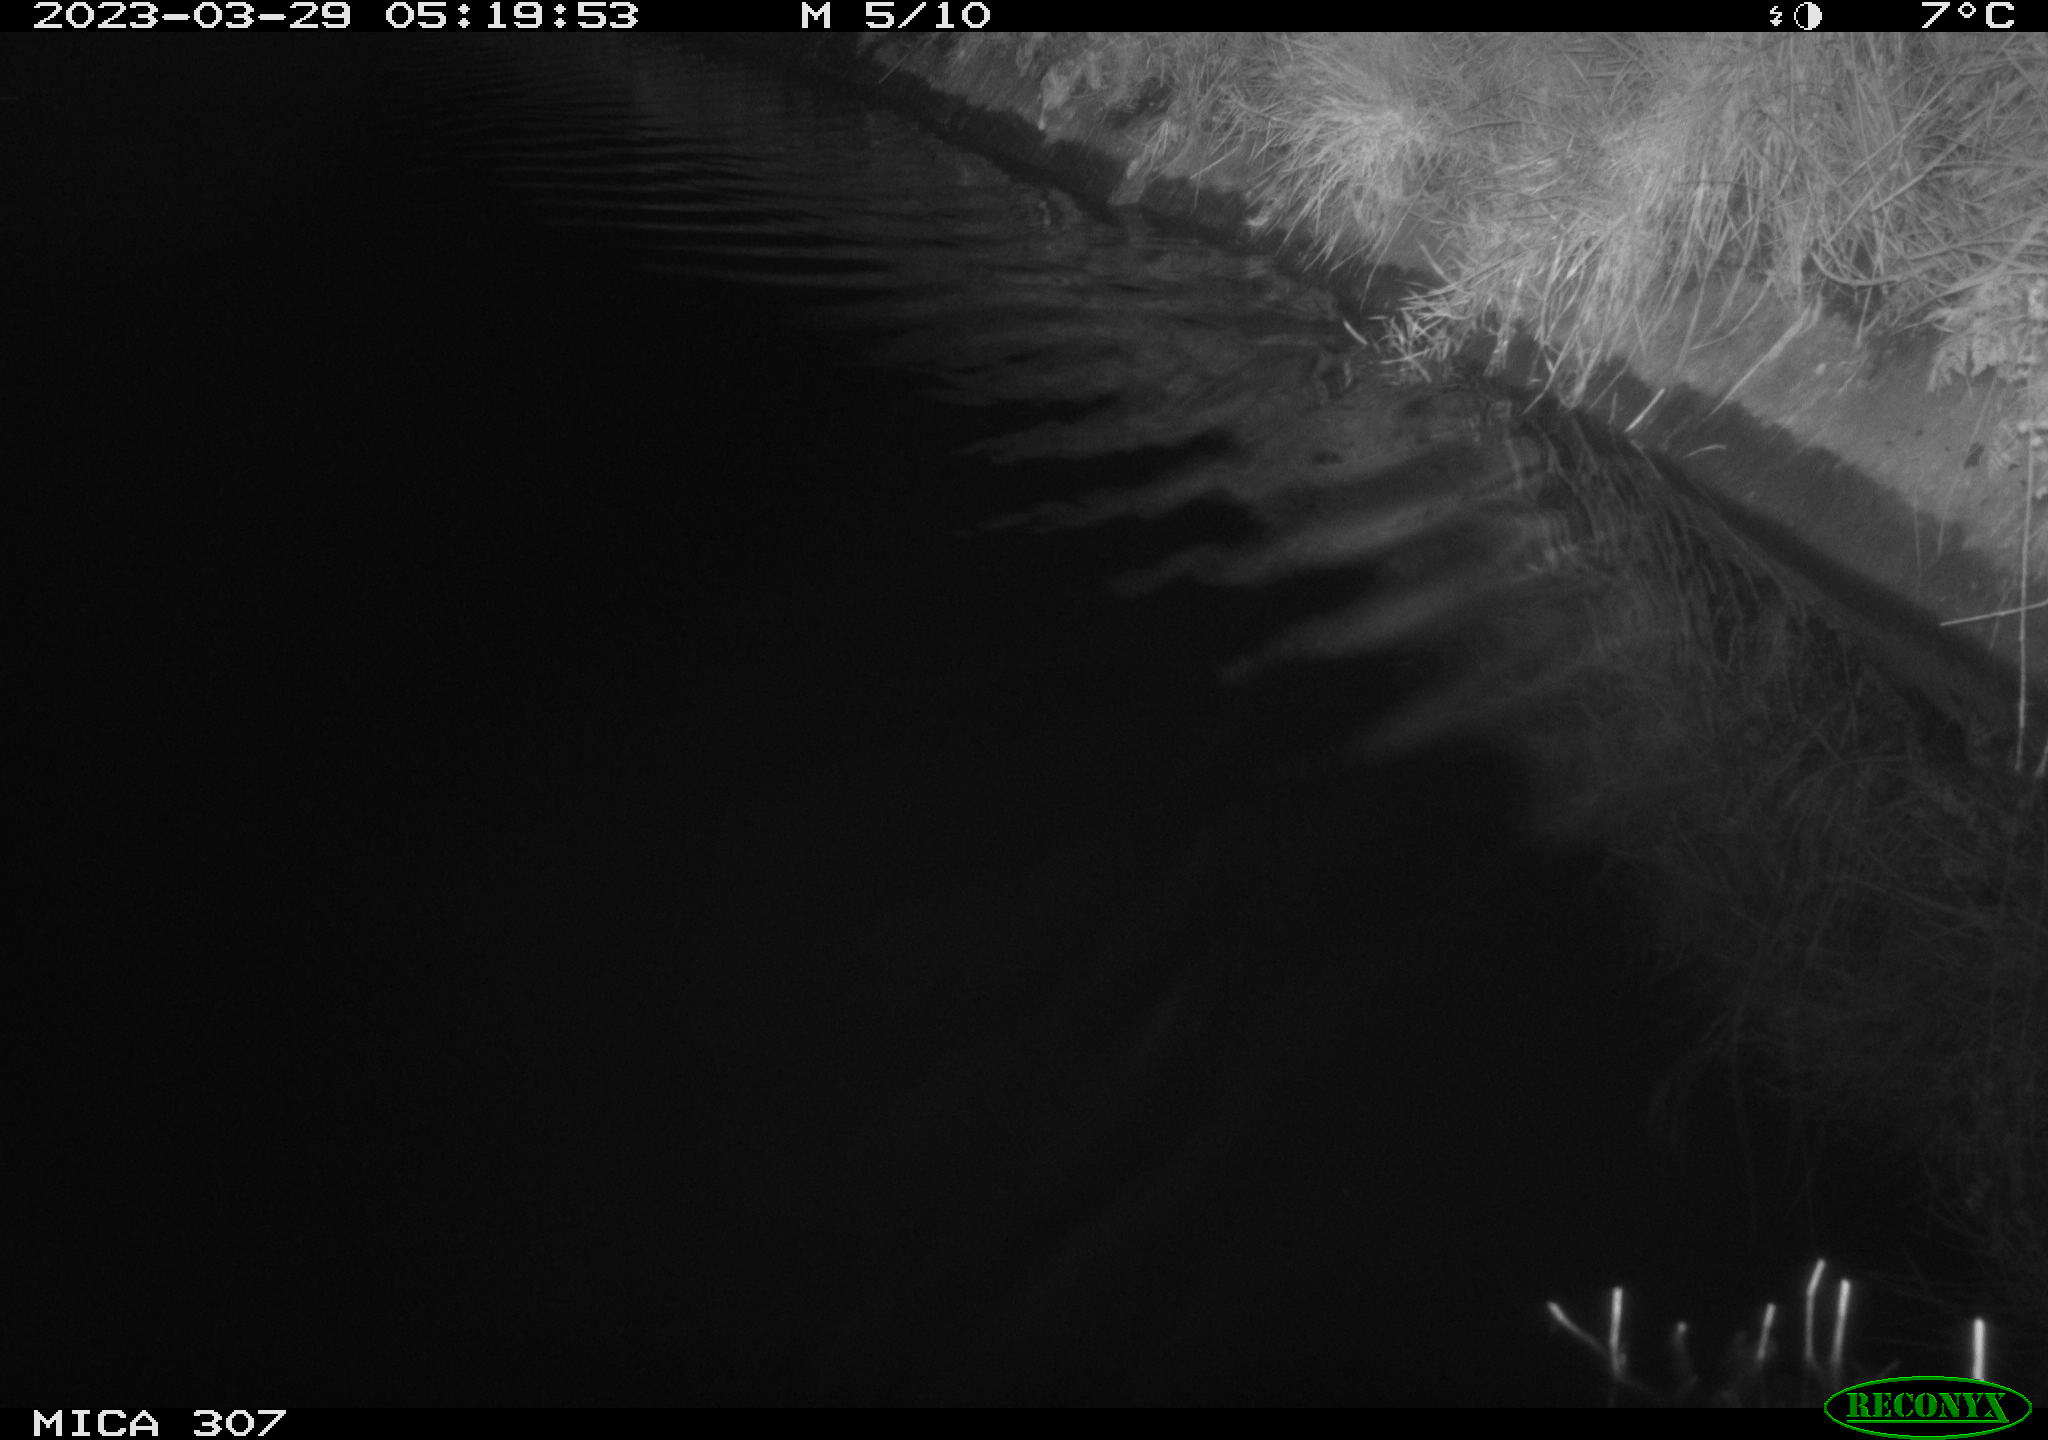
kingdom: Animalia
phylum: Chordata
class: Aves
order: Anseriformes
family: Anatidae
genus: Anas
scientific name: Anas
